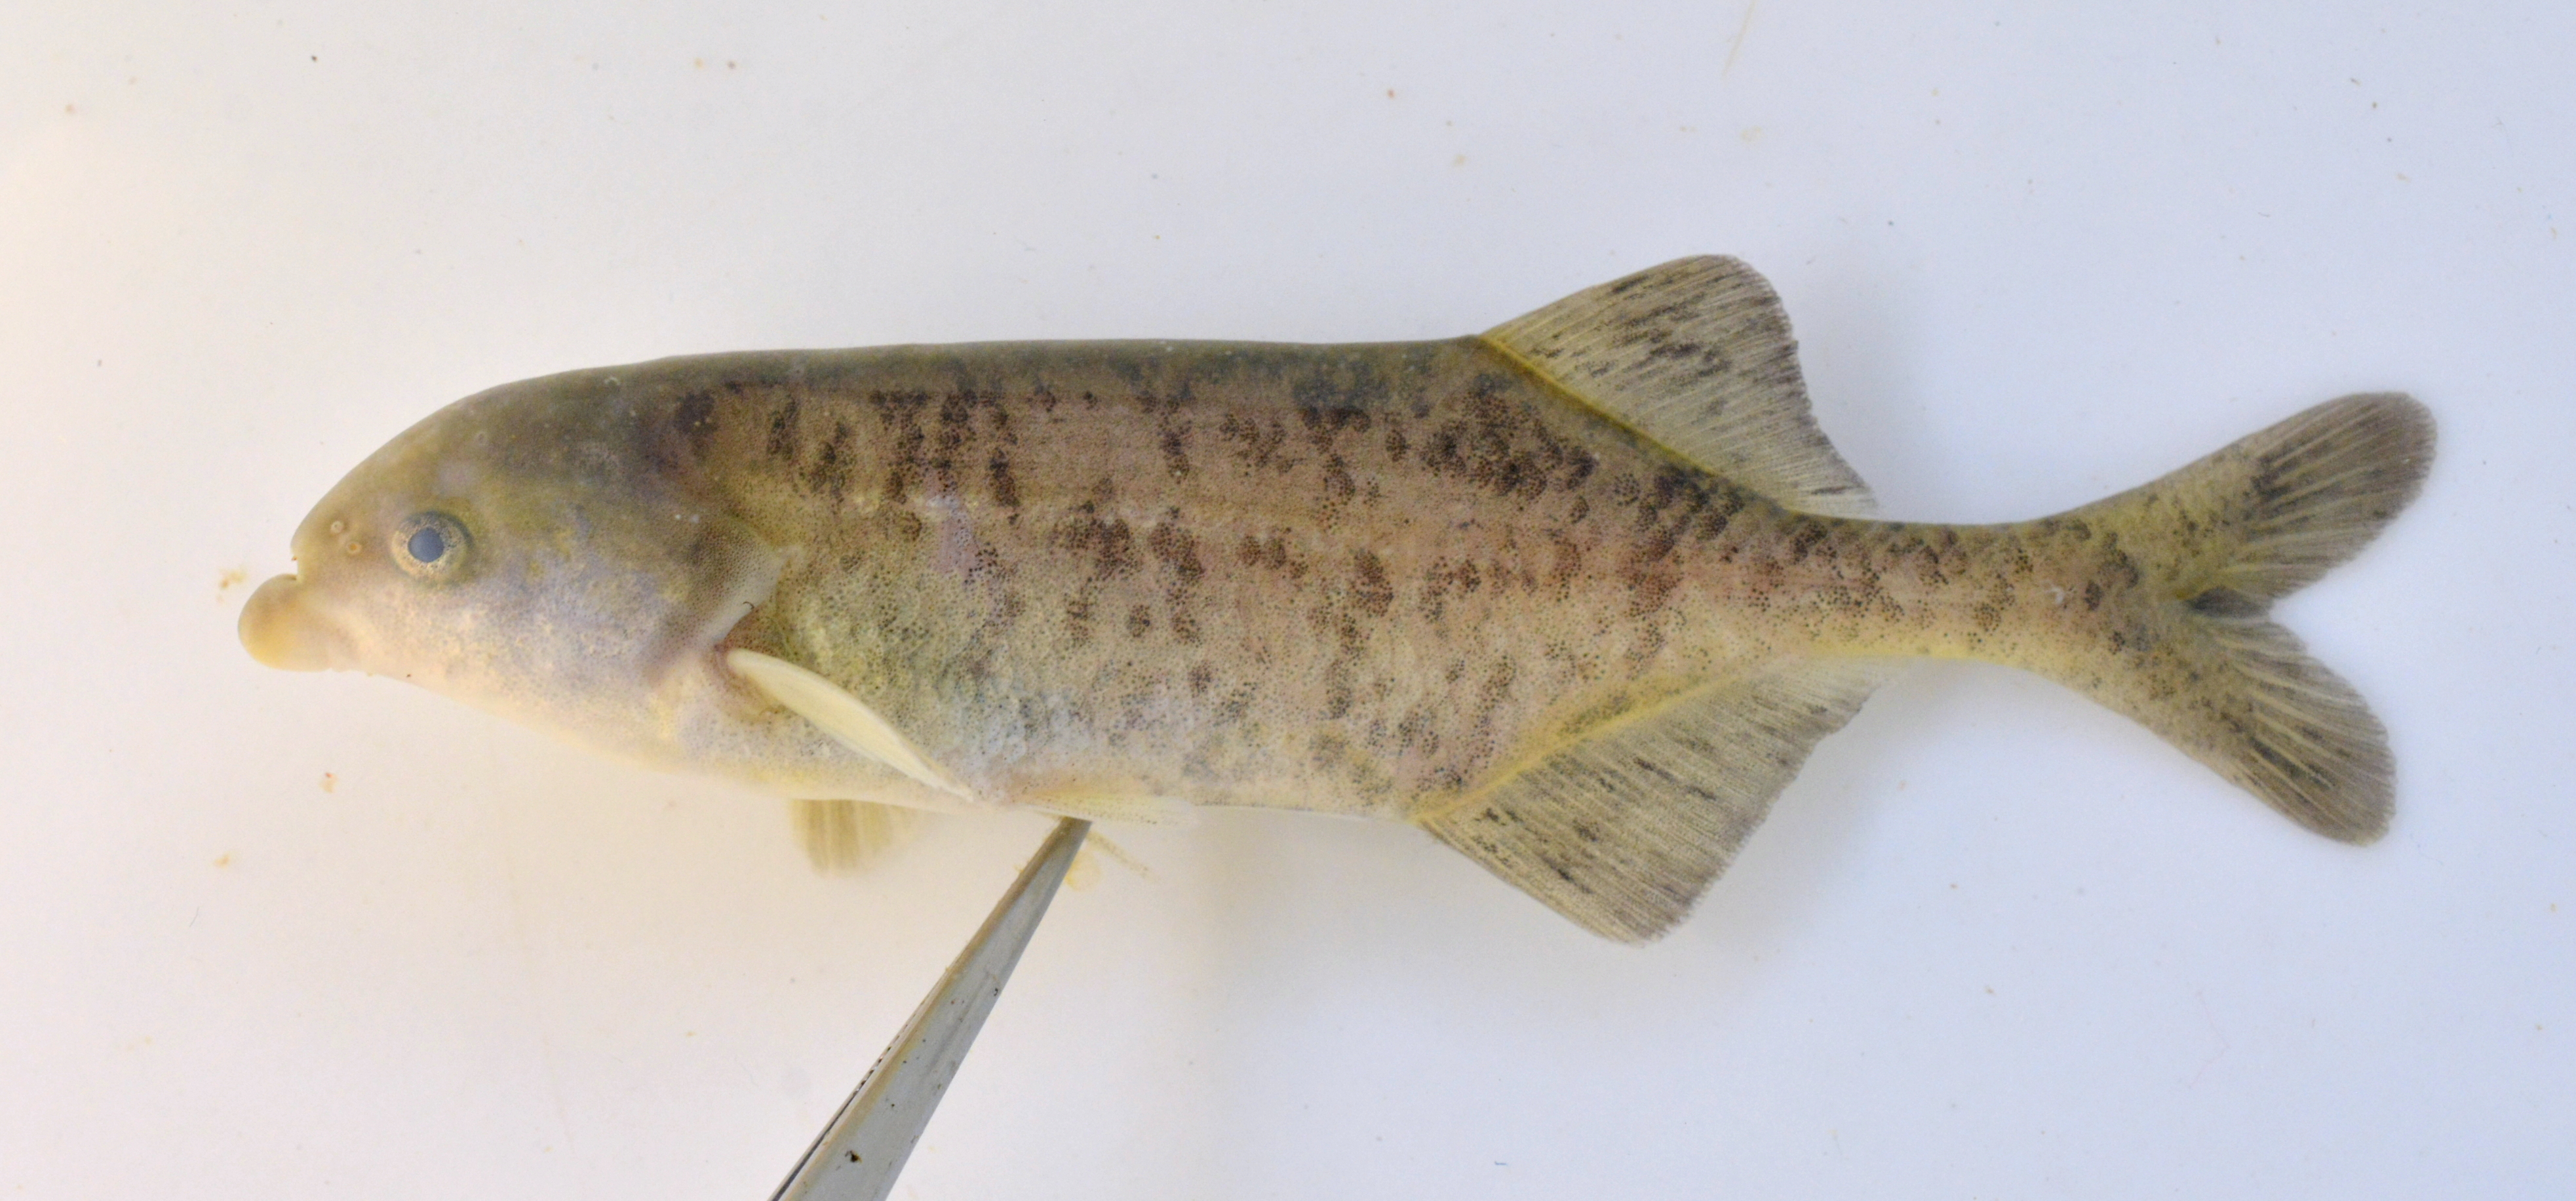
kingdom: Animalia
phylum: Chordata
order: Osteoglossiformes
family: Mormyridae
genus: Marcusenius
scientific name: Marcusenius altisambesi
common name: Bulldog
